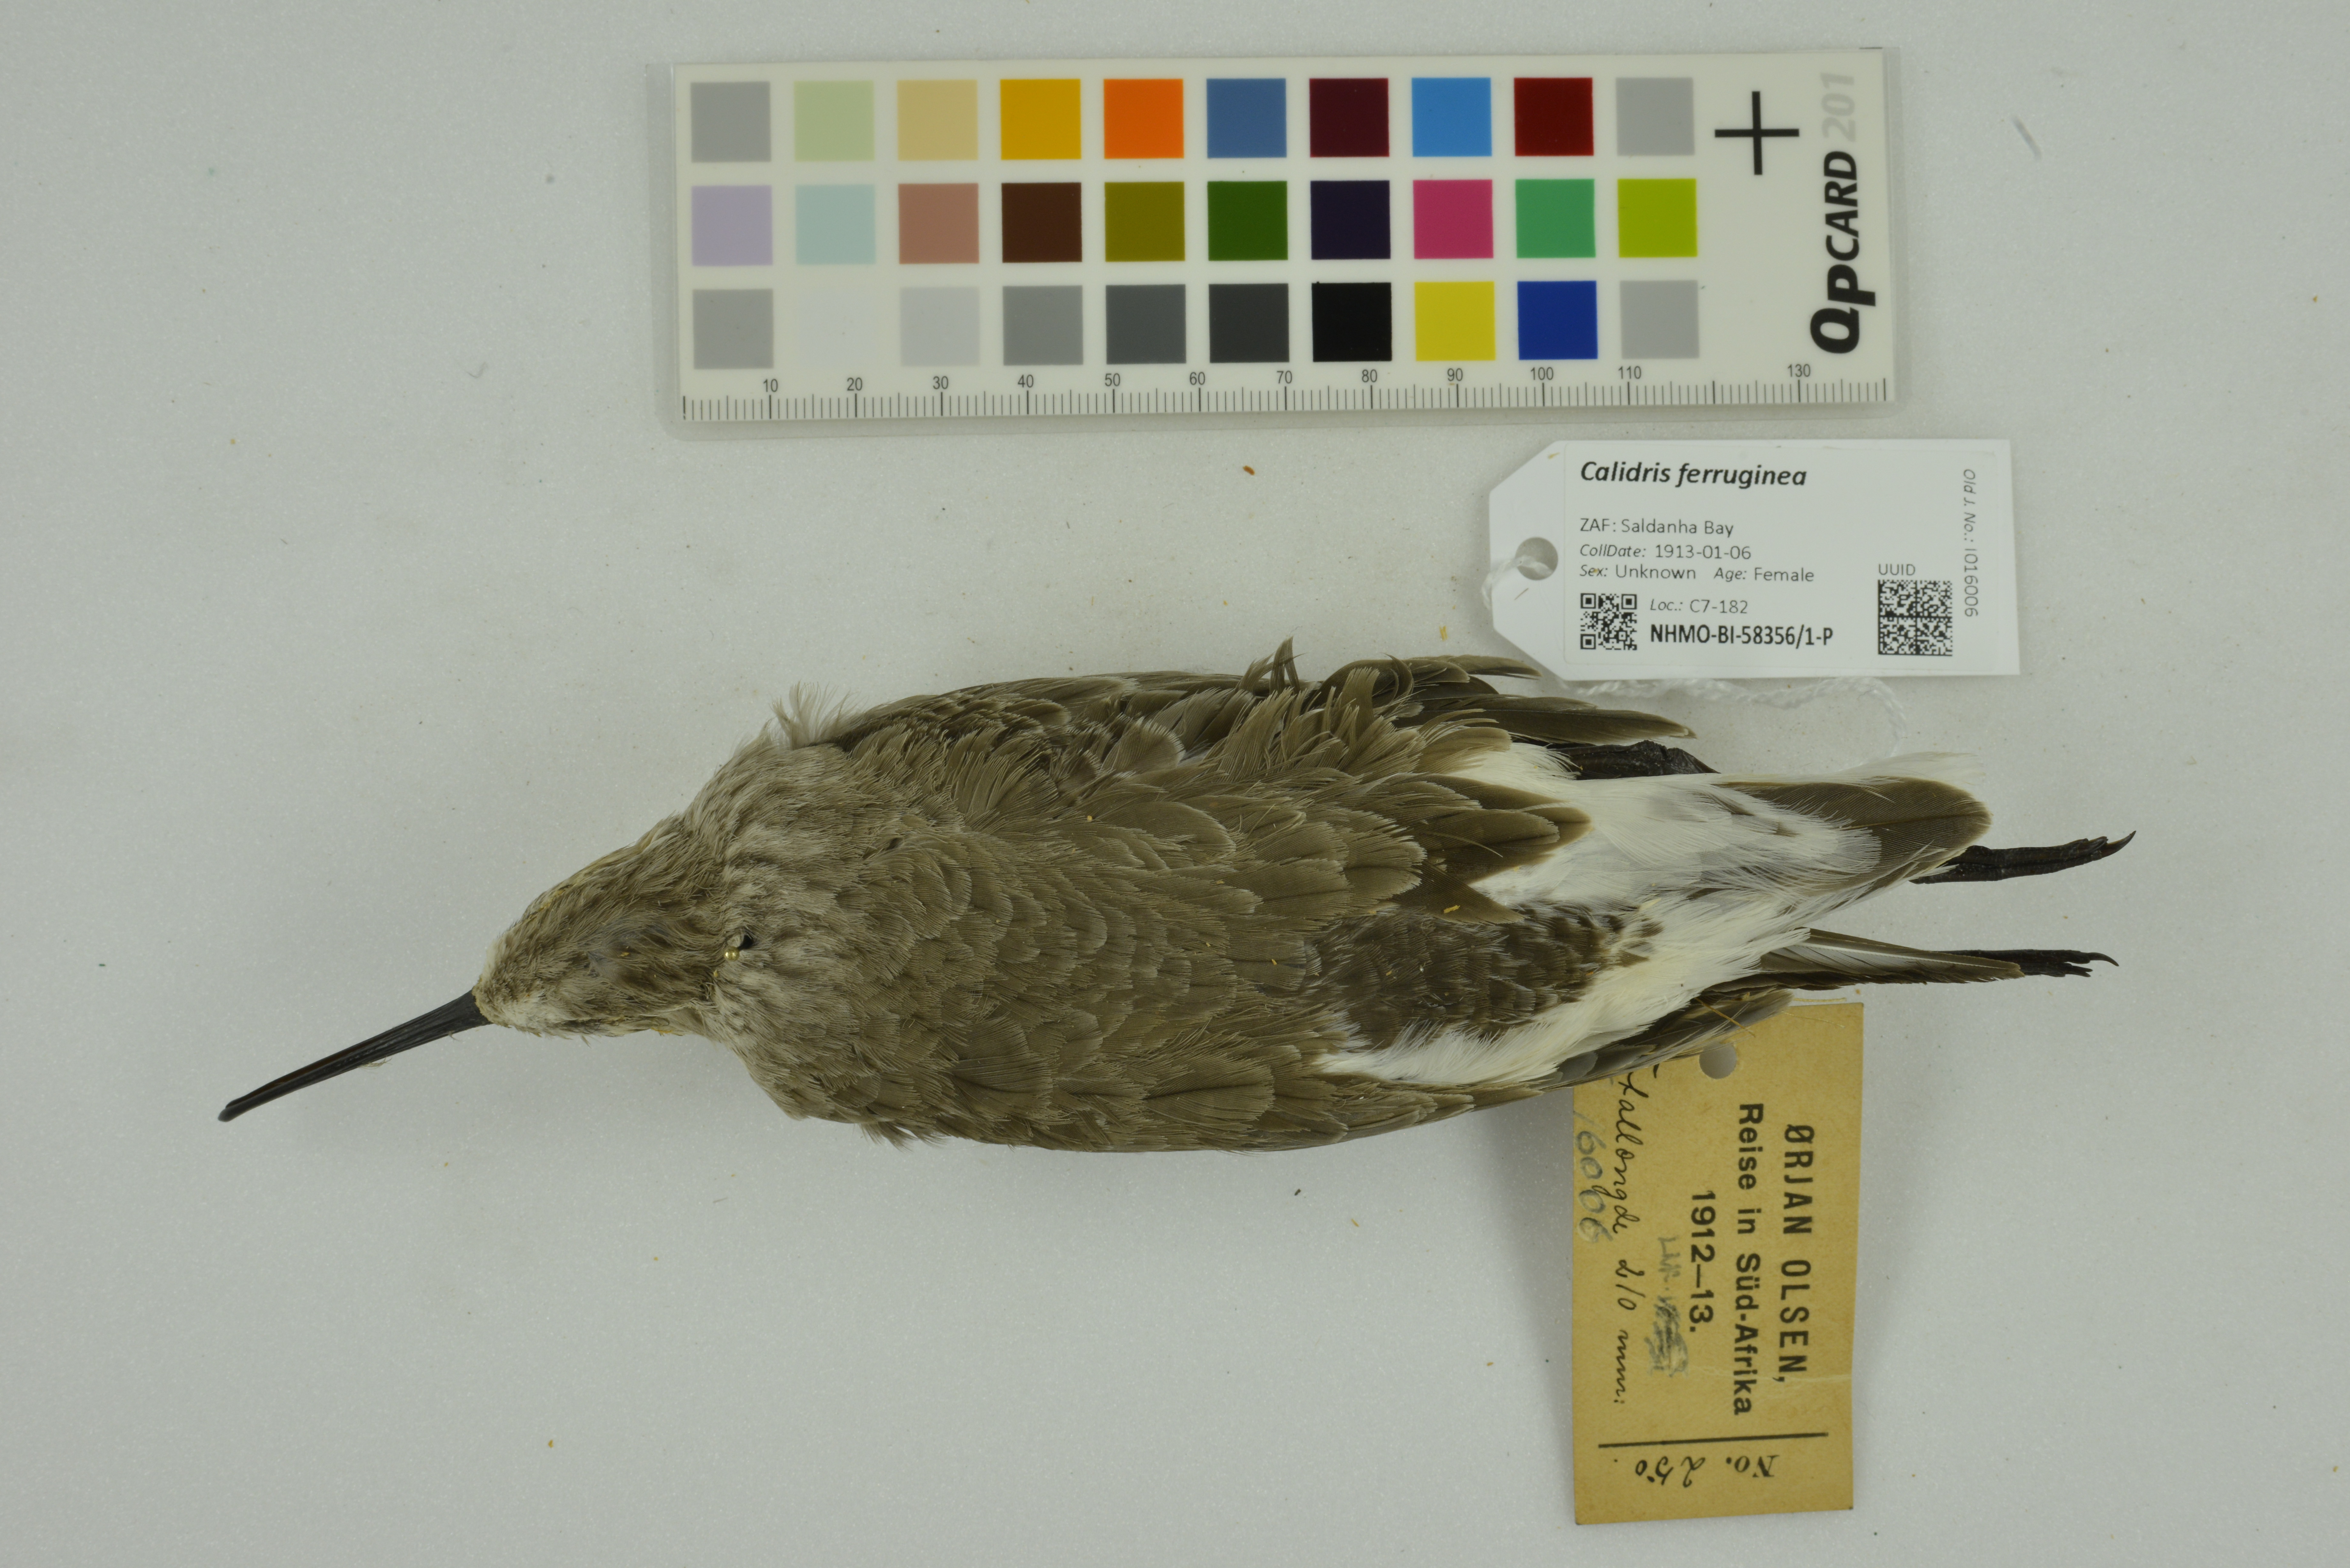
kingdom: Animalia
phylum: Chordata
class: Aves
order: Charadriiformes
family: Scolopacidae
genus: Calidris
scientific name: Calidris ferruginea
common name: Curlew sandpiper
